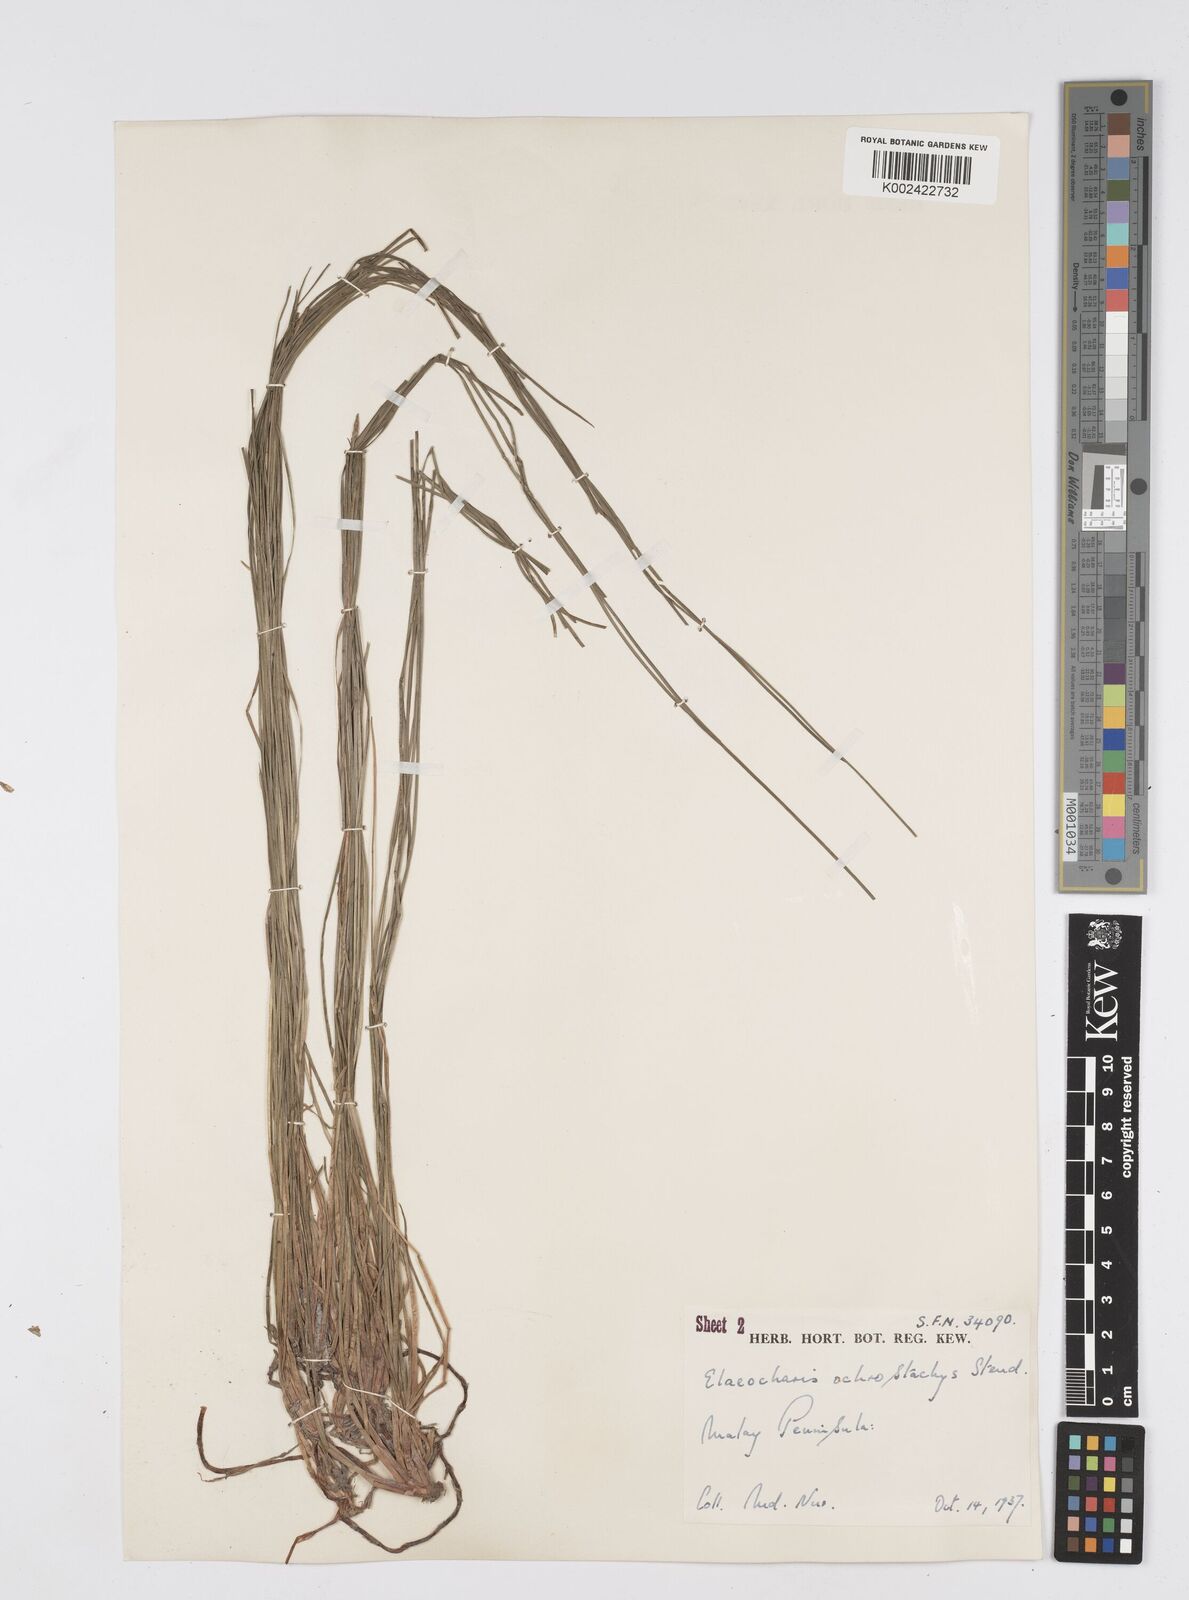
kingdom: Plantae
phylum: Tracheophyta
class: Liliopsida
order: Poales
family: Cyperaceae
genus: Eleocharis
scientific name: Eleocharis variegata
